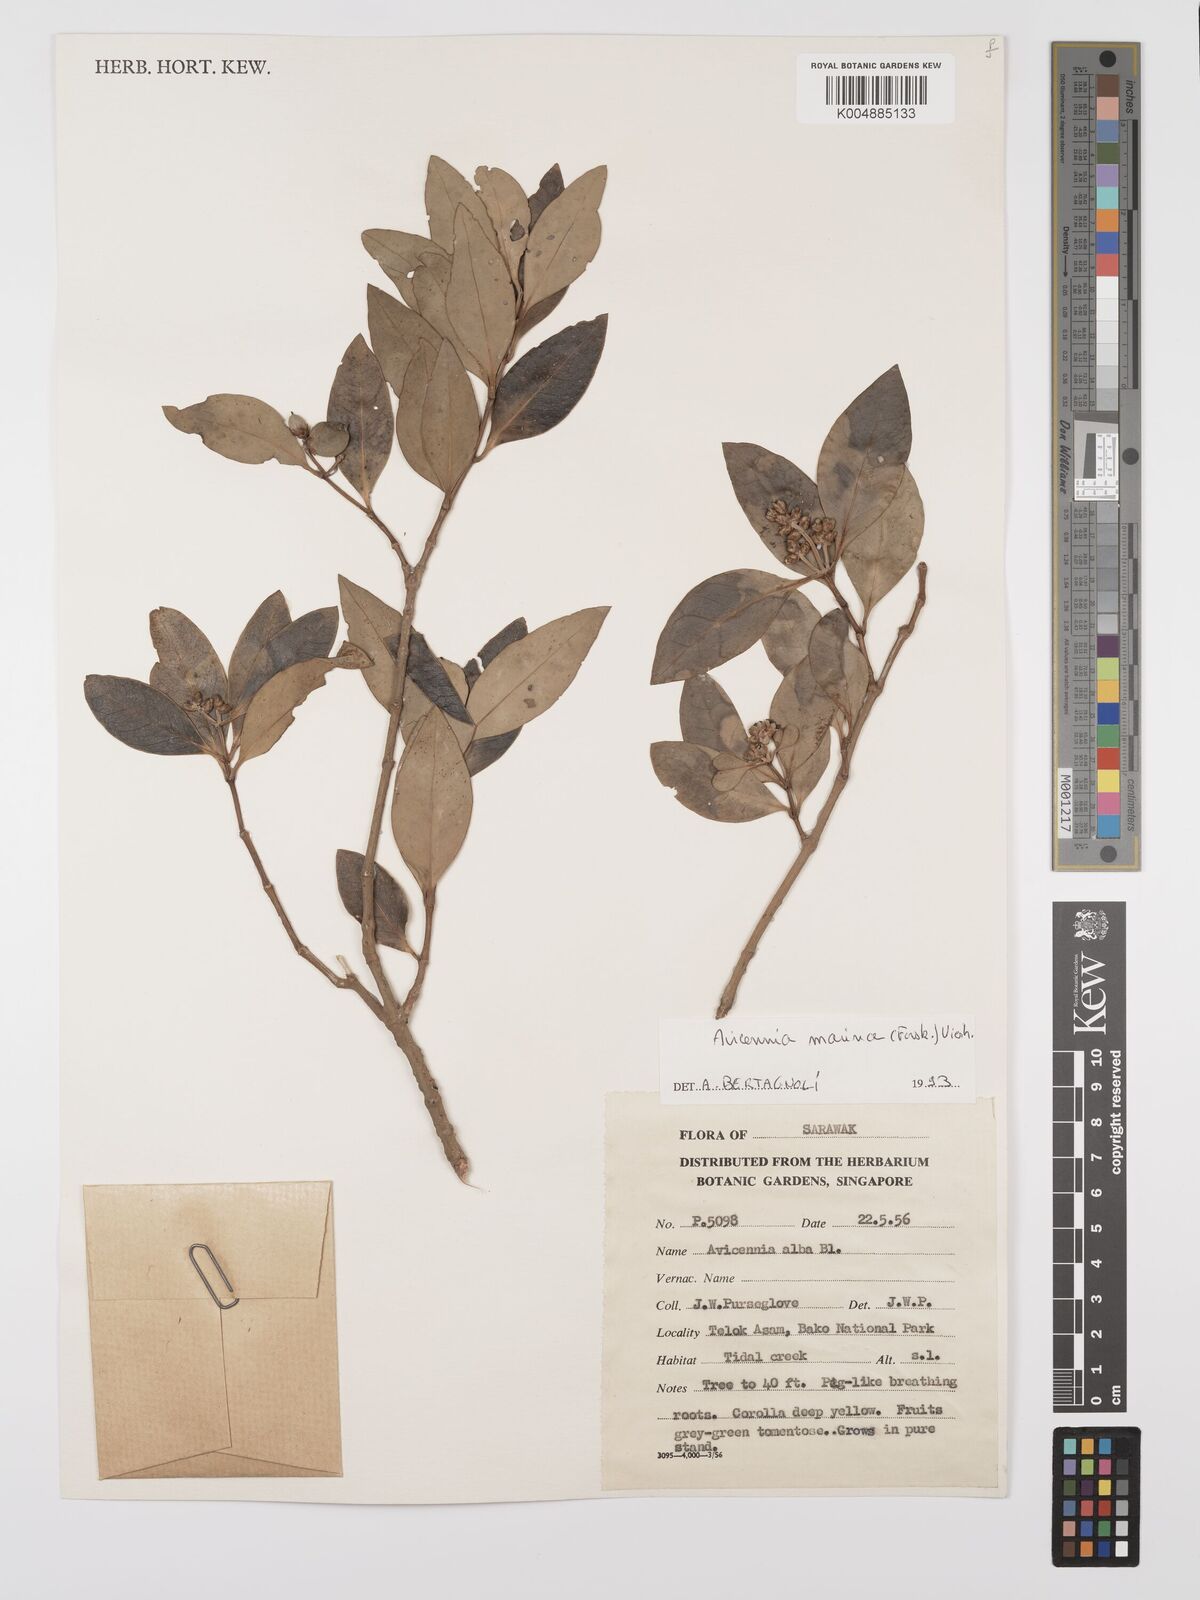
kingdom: Plantae
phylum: Tracheophyta
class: Magnoliopsida
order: Lamiales
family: Acanthaceae
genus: Avicennia
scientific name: Avicennia marina
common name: Gray mangrove
